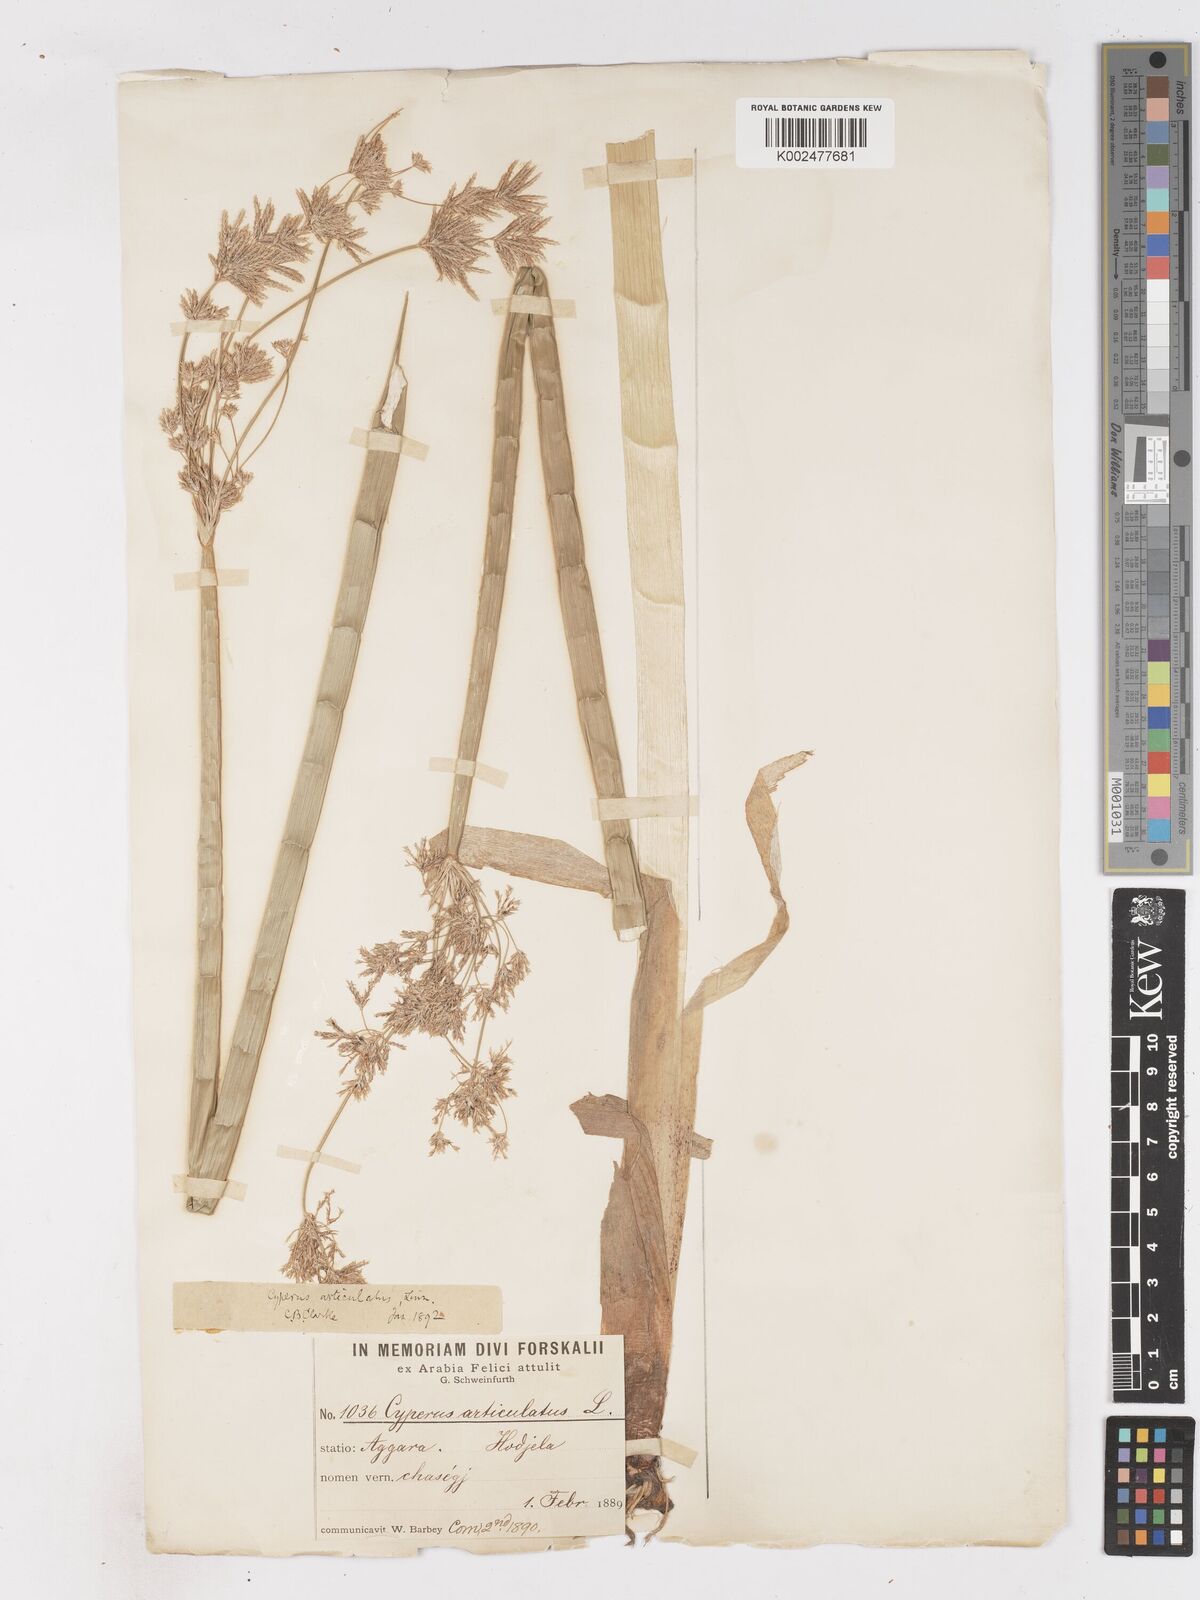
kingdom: Plantae
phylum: Tracheophyta
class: Liliopsida
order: Poales
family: Cyperaceae
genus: Cyperus
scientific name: Cyperus articulatus
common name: Jointed flatsedge
